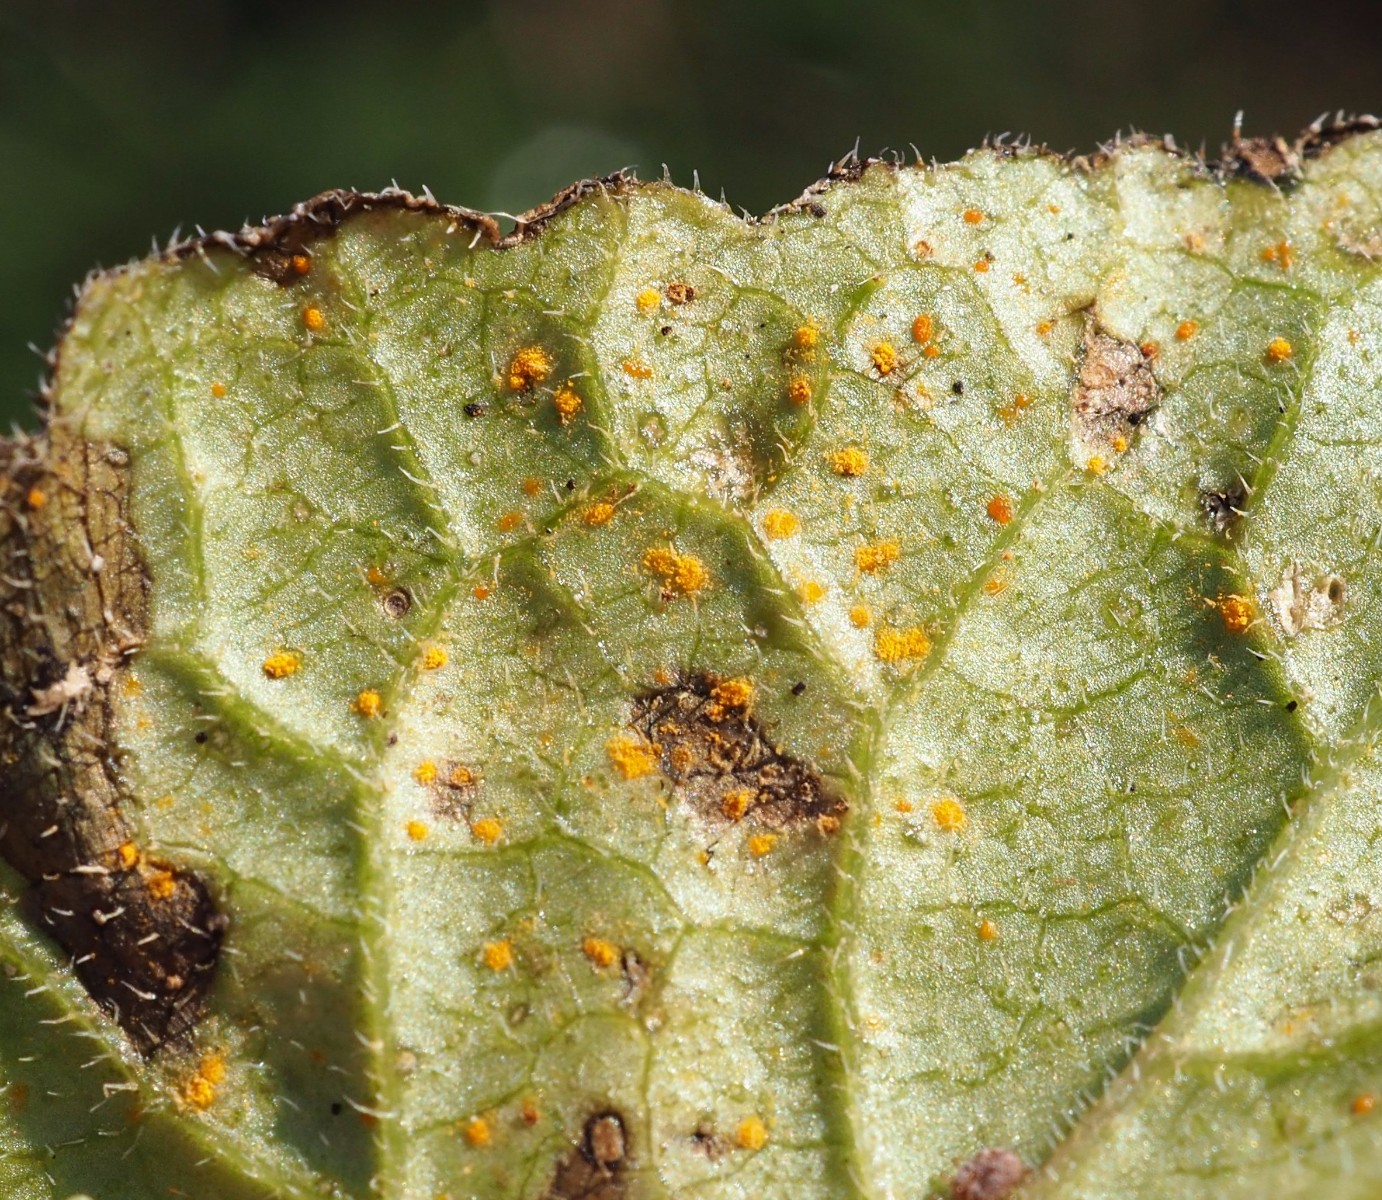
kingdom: Fungi
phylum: Basidiomycota
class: Pucciniomycetes
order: Pucciniales
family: Pucciniaceae
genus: Puccinia
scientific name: Puccinia violae
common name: viol-tvecellerust
